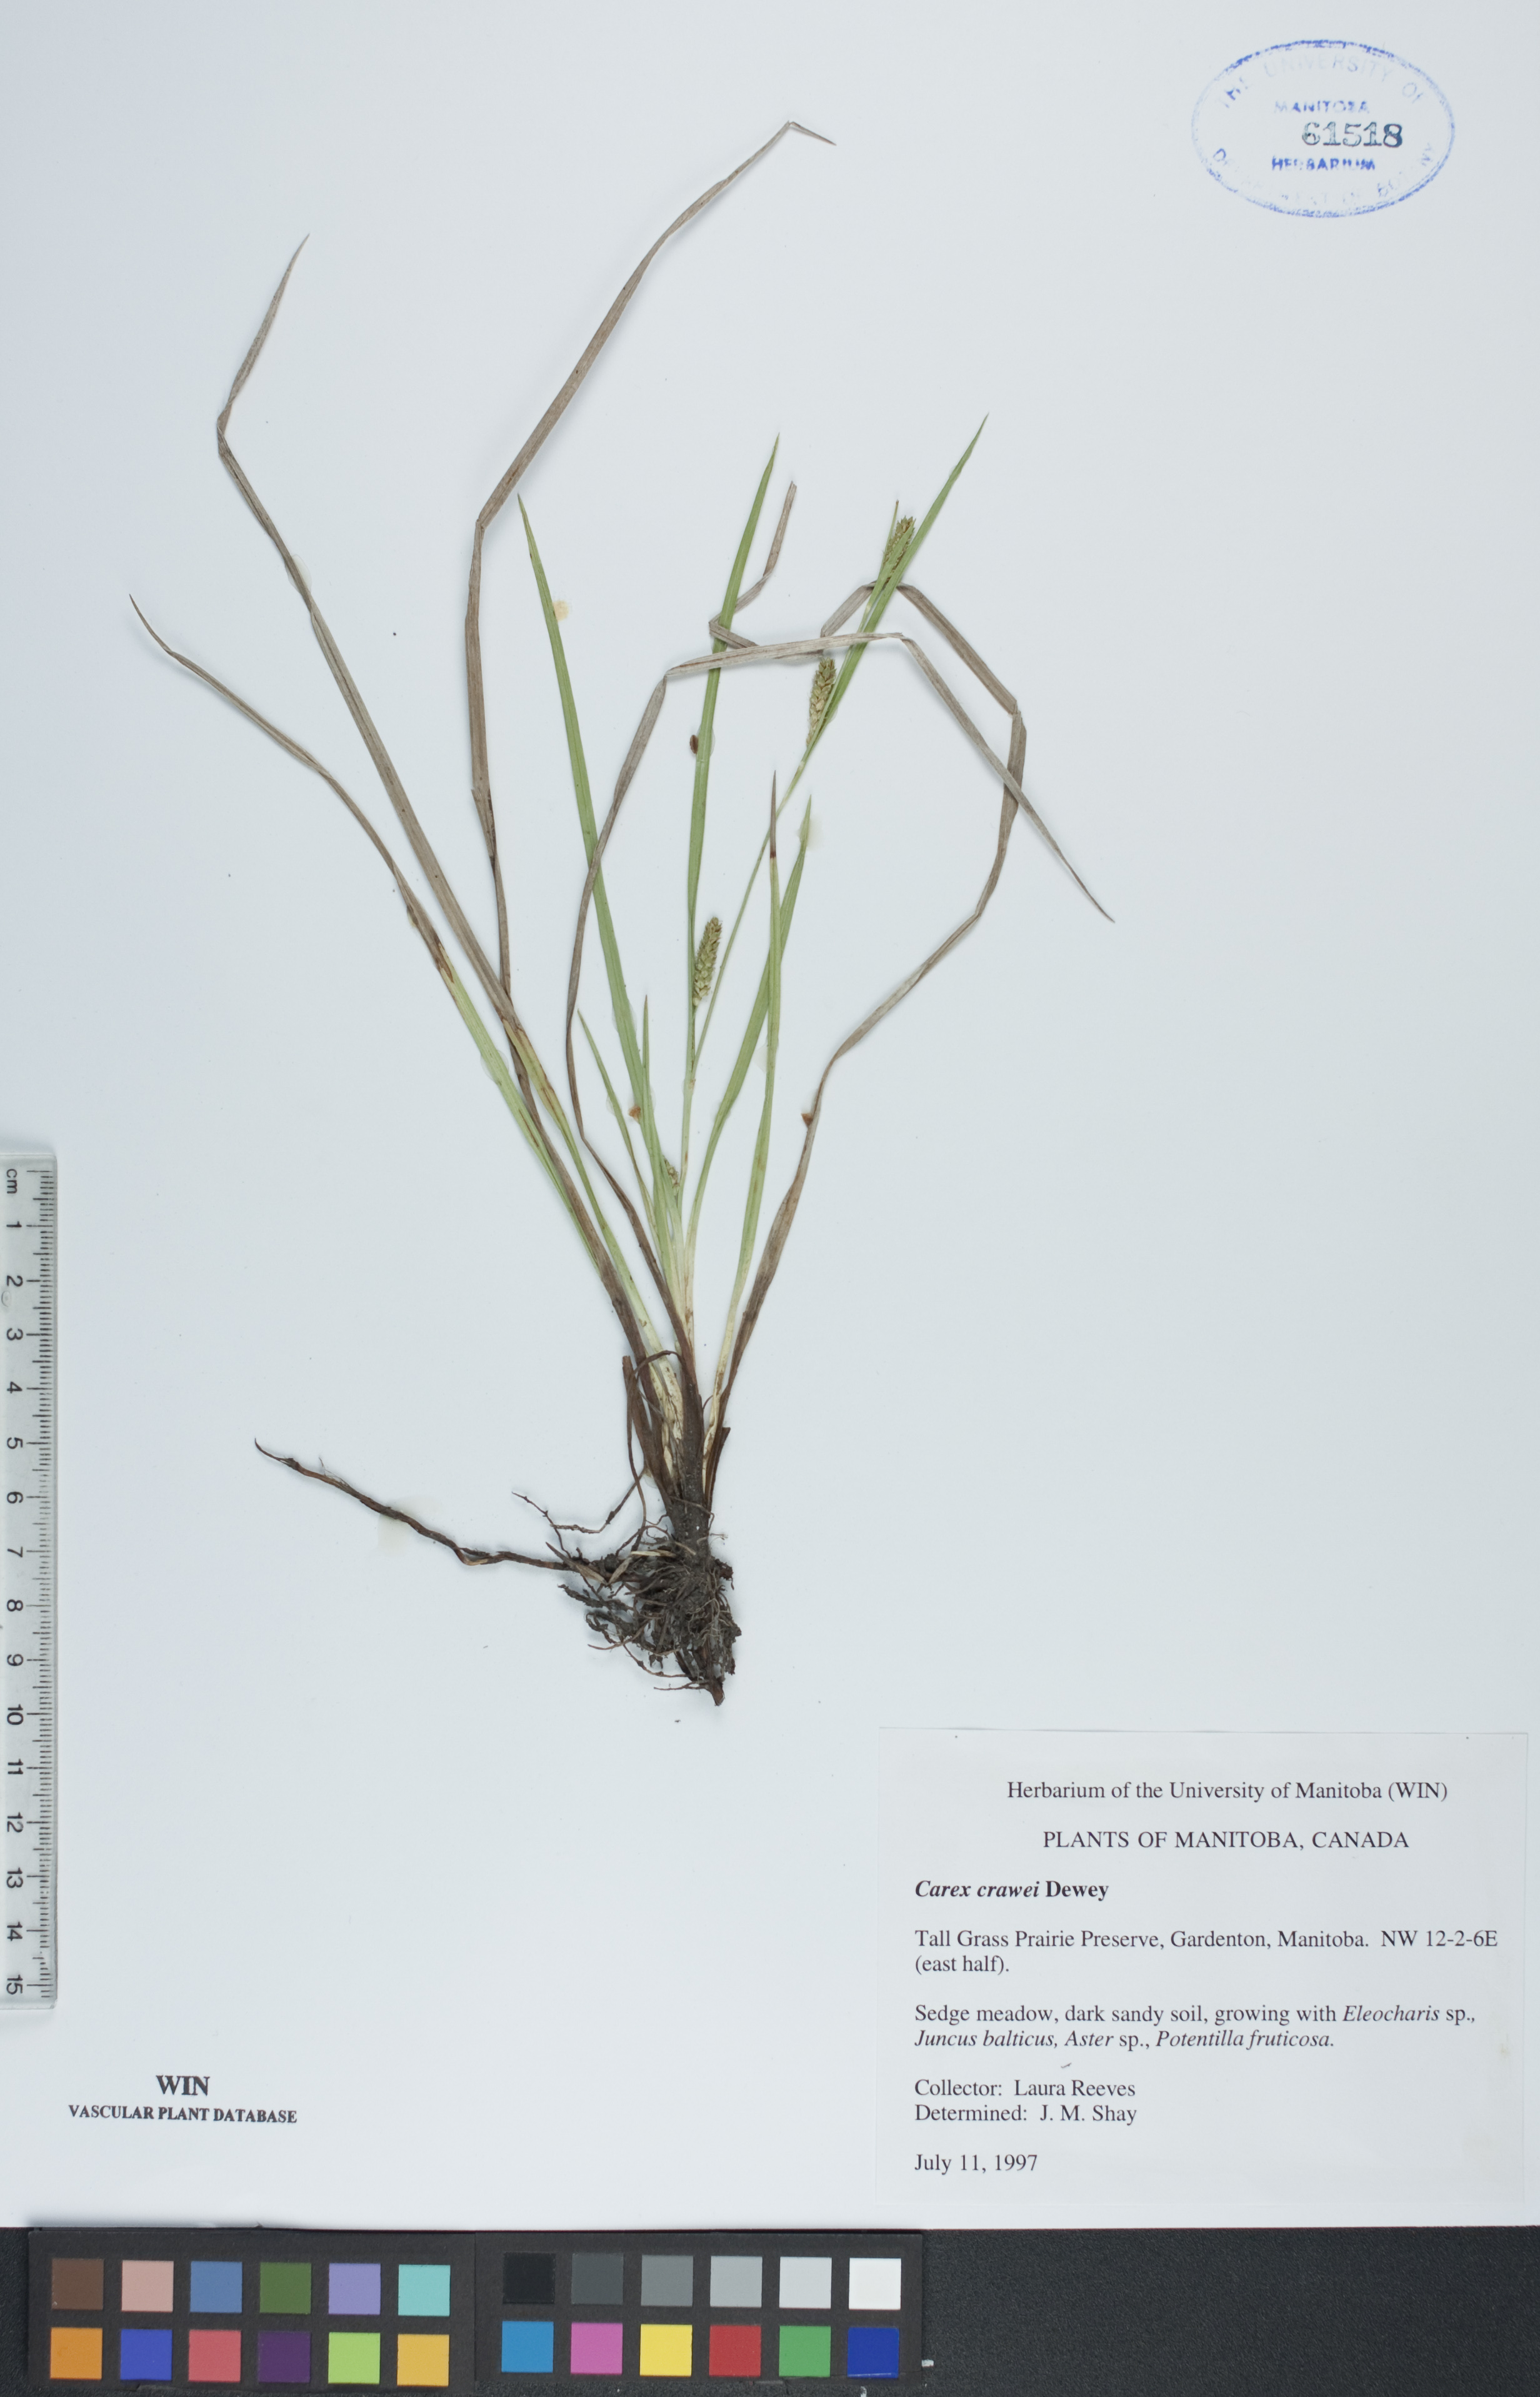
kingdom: Plantae
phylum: Tracheophyta
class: Liliopsida
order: Poales
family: Cyperaceae
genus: Carex
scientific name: Carex crawei
